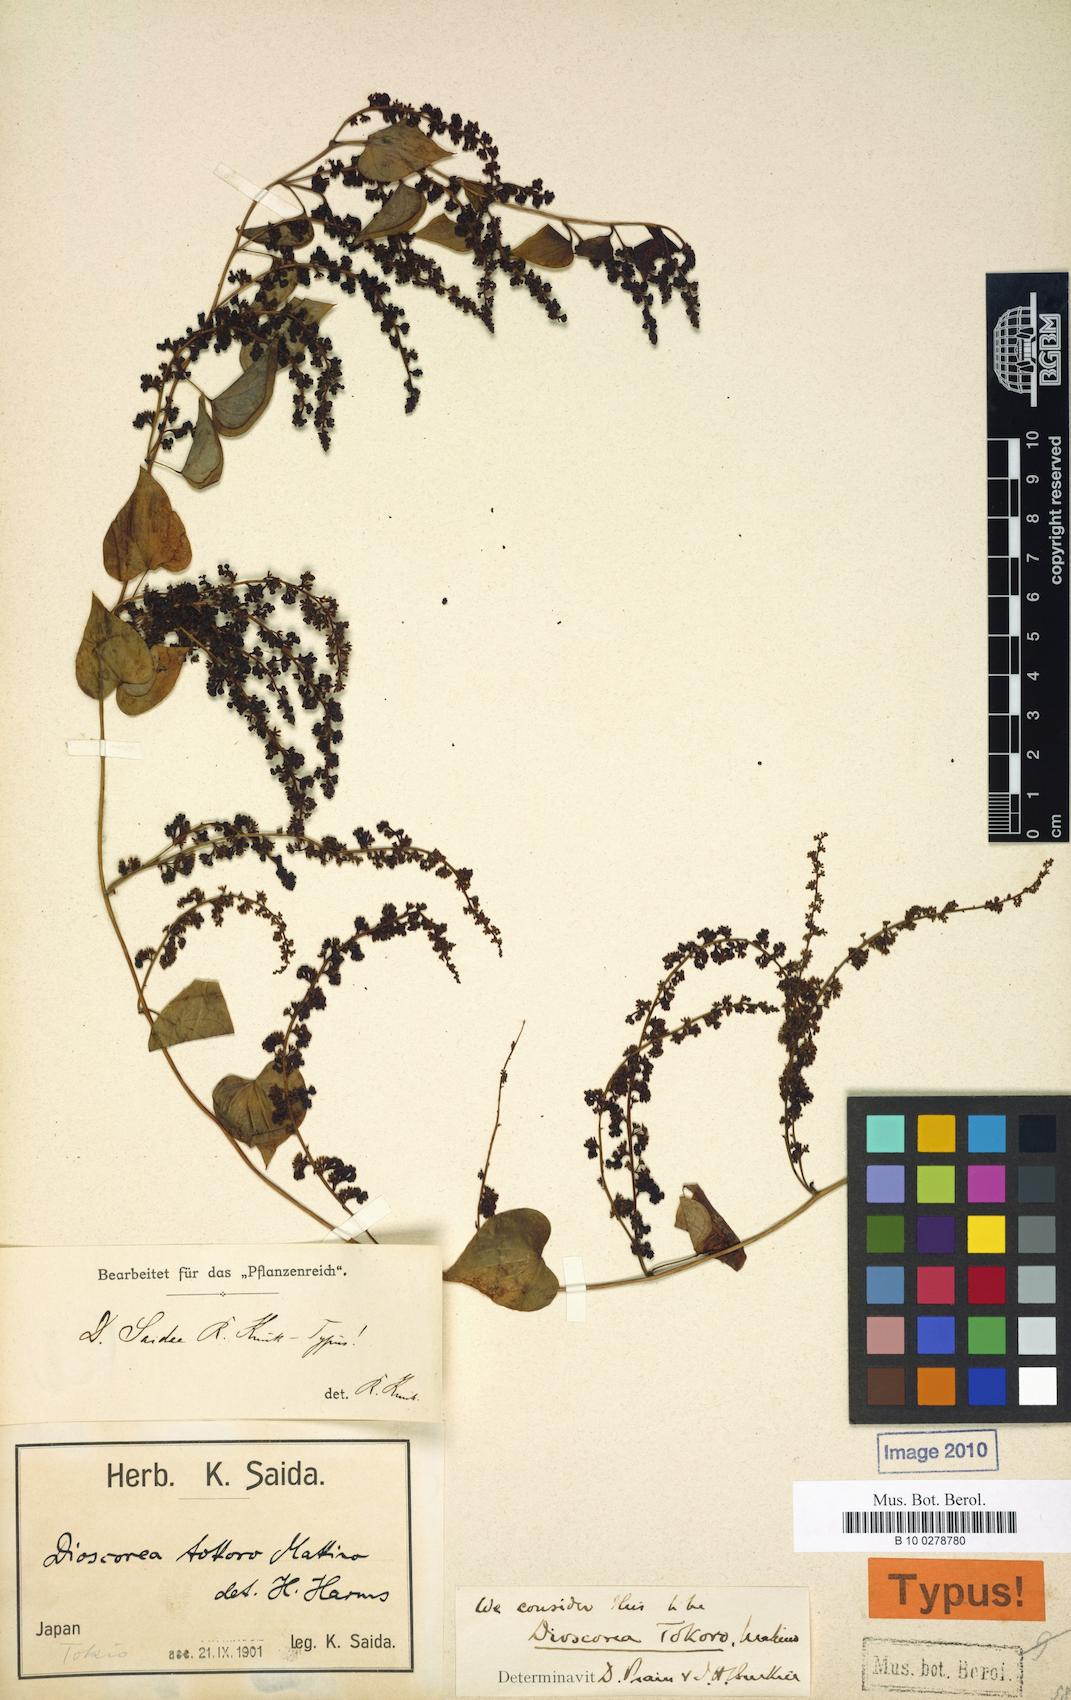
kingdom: Plantae
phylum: Tracheophyta
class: Liliopsida
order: Dioscoreales
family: Dioscoreaceae
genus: Dioscorea
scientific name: Dioscorea tokoro
